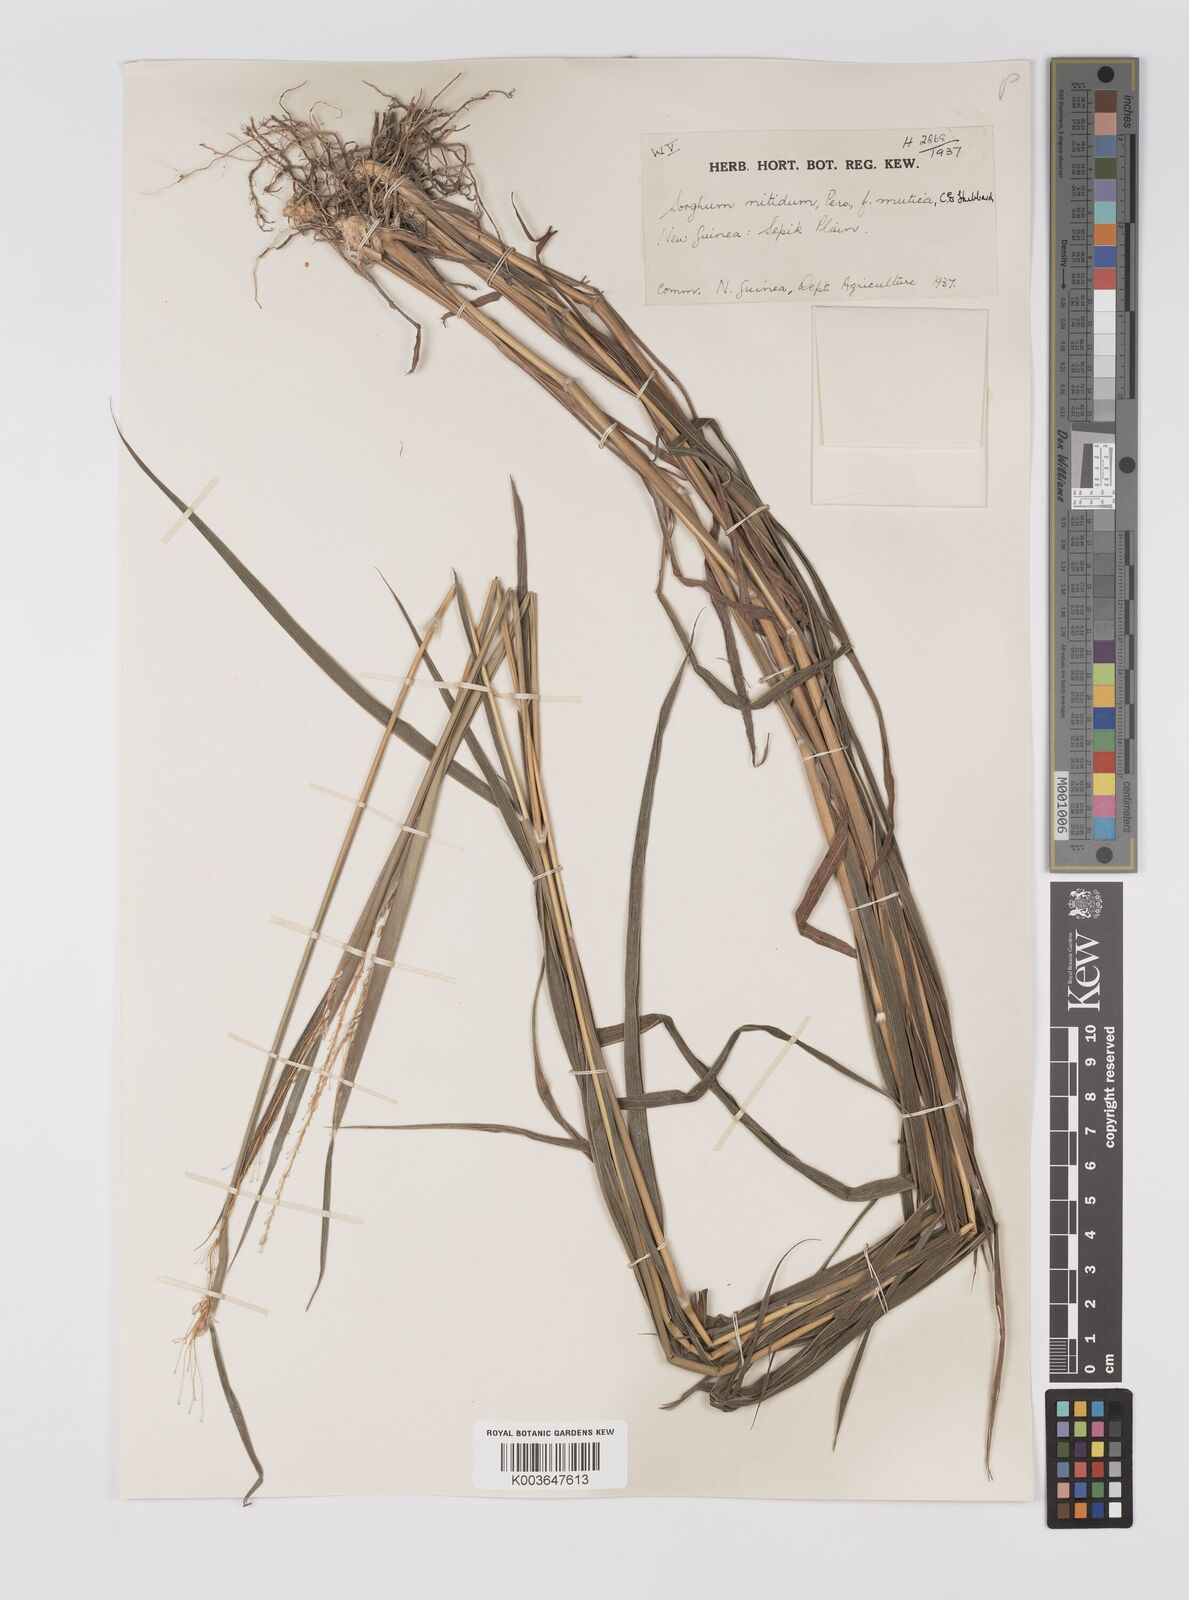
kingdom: Plantae
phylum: Tracheophyta
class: Liliopsida
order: Poales
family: Poaceae
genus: Sorghum
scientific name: Sorghum nitidum
